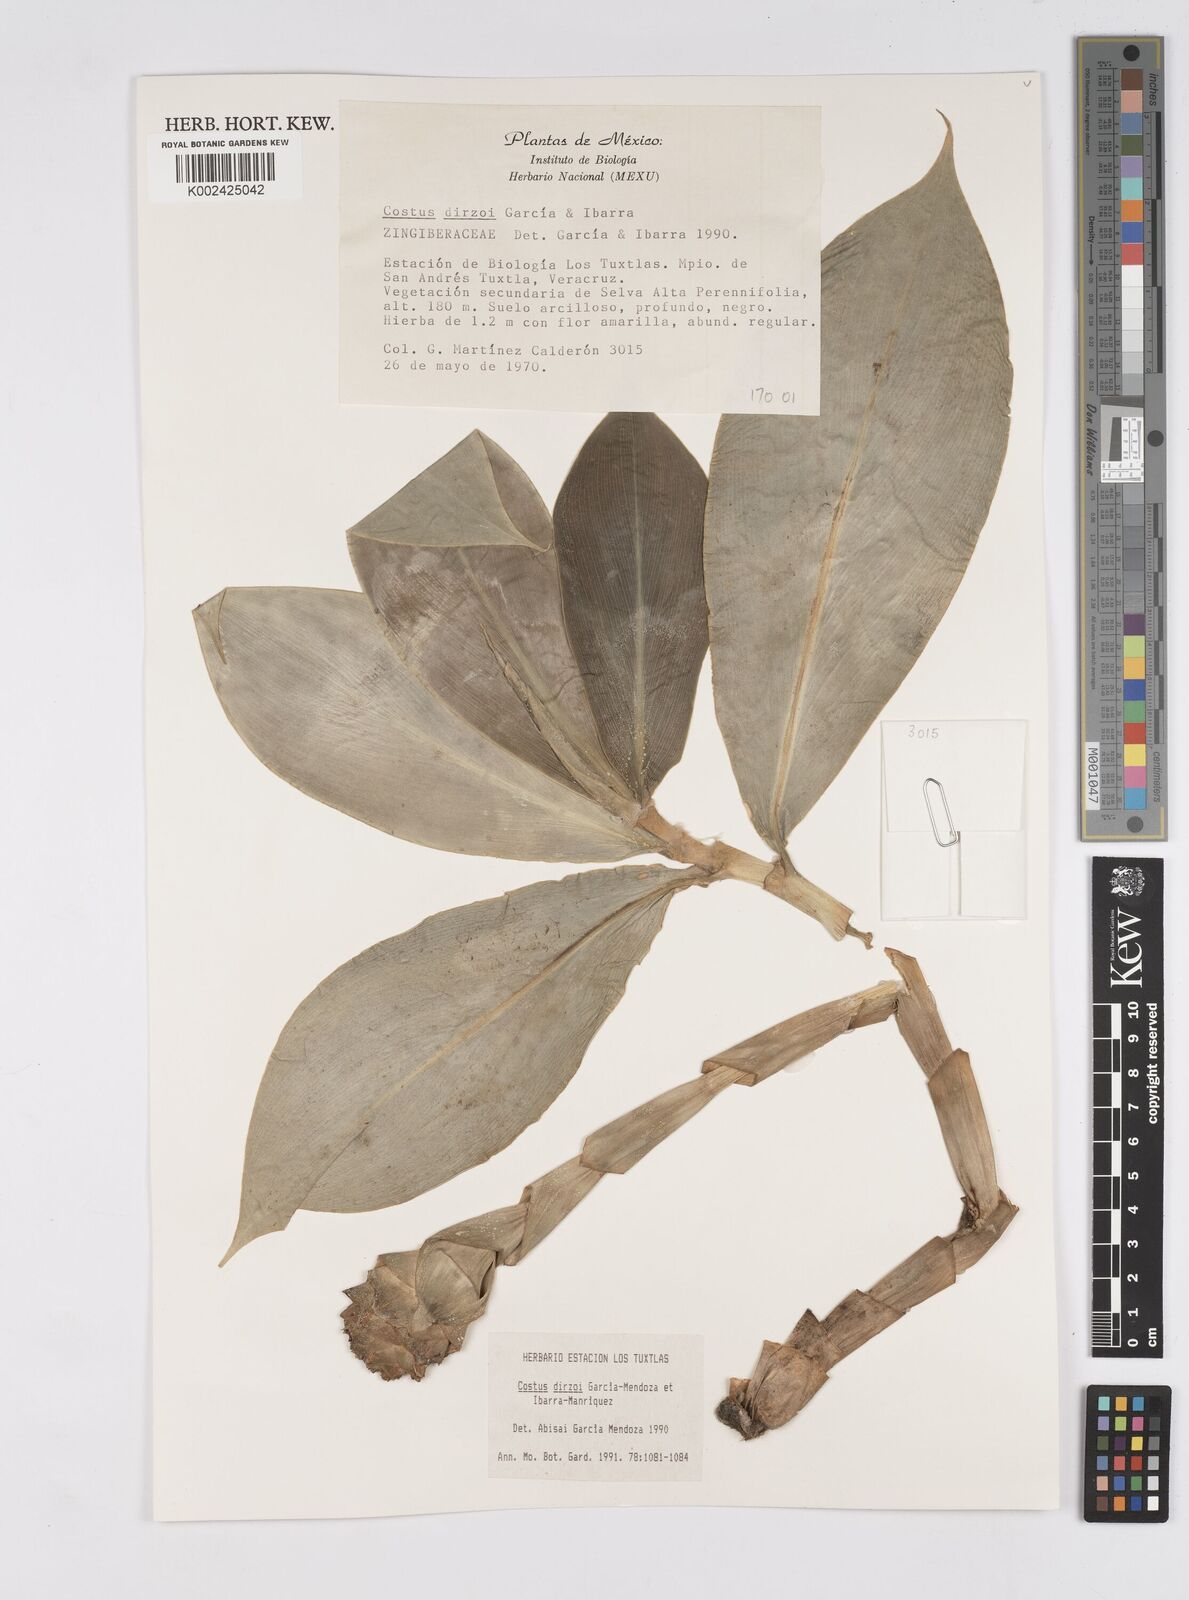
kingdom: Plantae
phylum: Tracheophyta
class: Liliopsida
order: Zingiberales
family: Costaceae
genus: Costus
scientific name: Costus dirzoi
